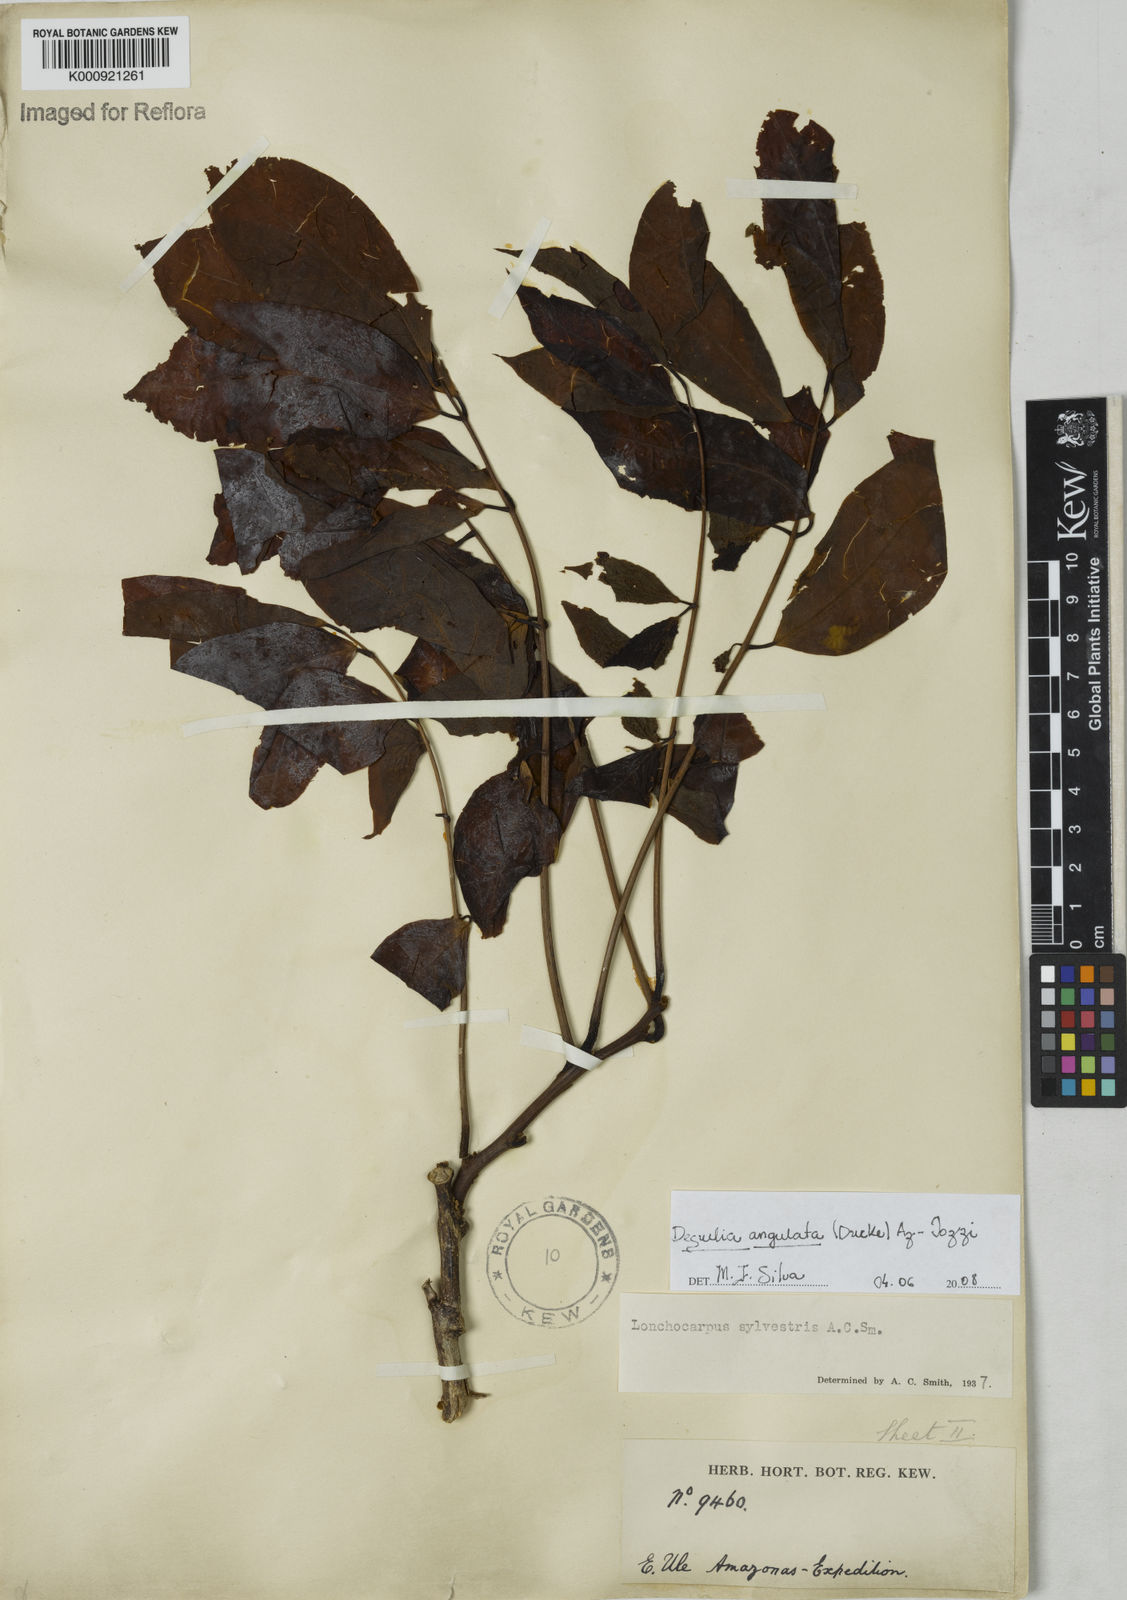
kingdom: Plantae
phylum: Tracheophyta
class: Magnoliopsida
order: Fabales
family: Fabaceae
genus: Deguelia
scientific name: Deguelia angulata
